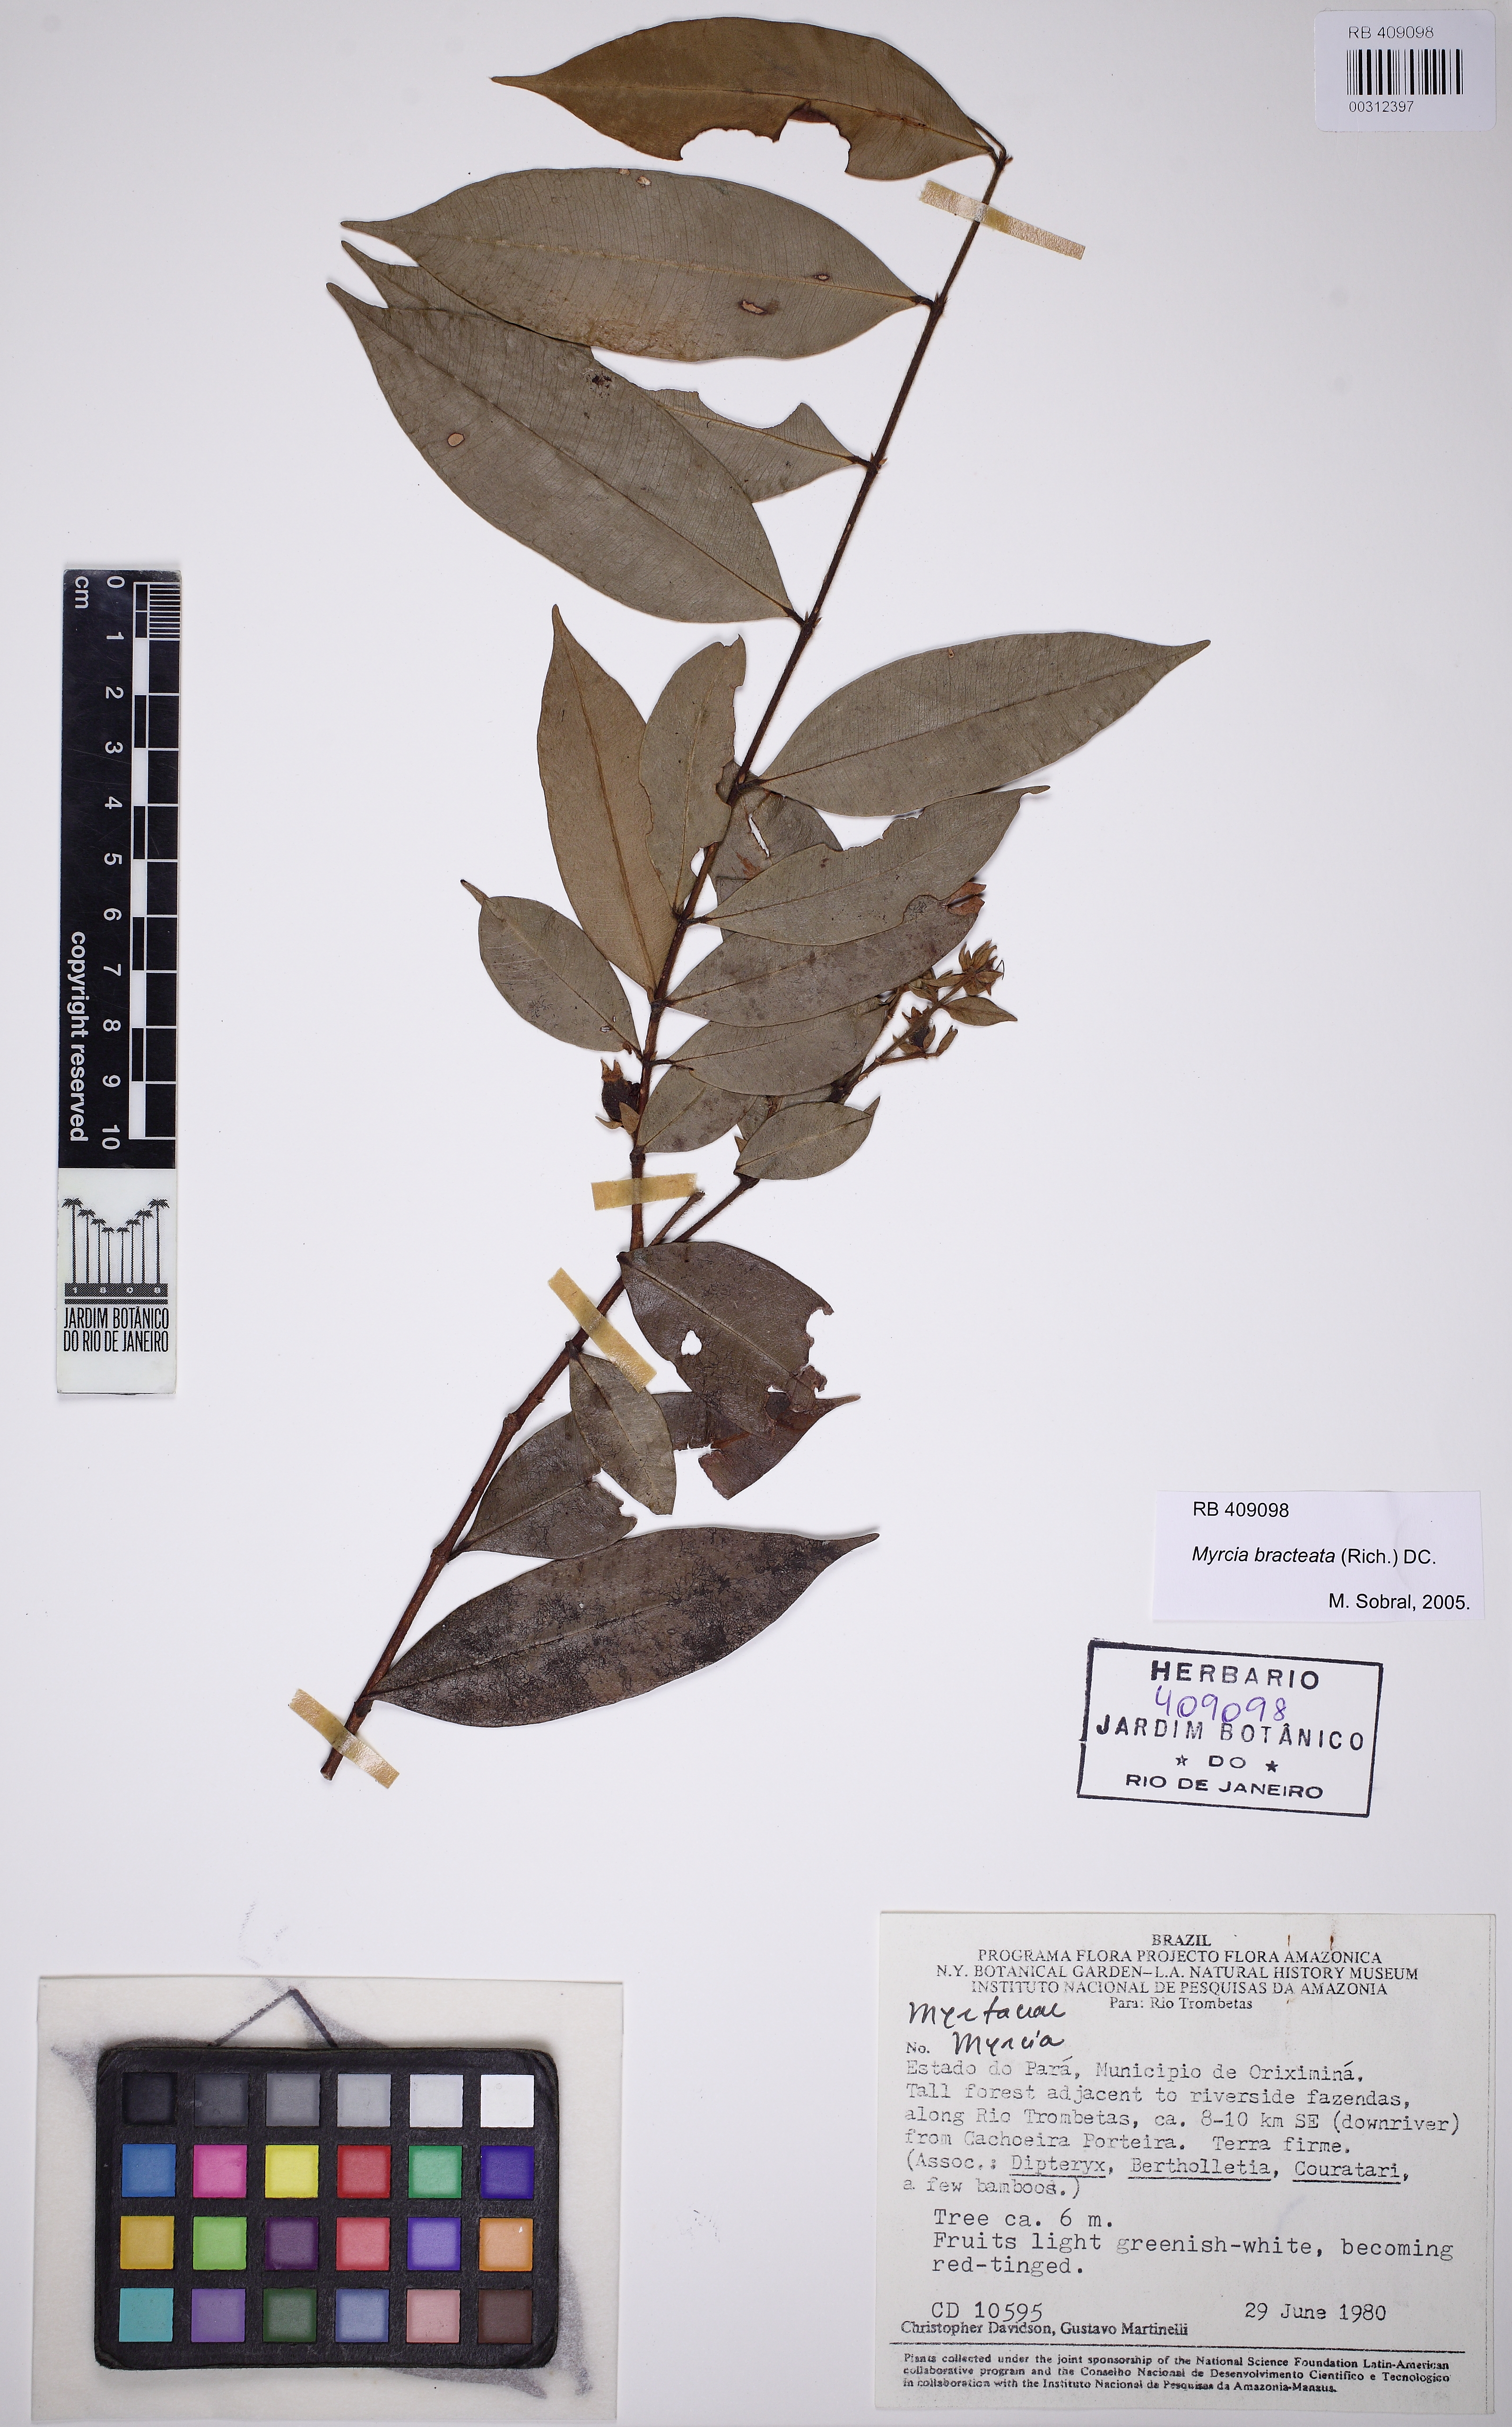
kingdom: Plantae
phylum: Tracheophyta
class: Magnoliopsida
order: Myrtales
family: Myrtaceae
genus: Myrcia
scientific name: Myrcia bracteata
